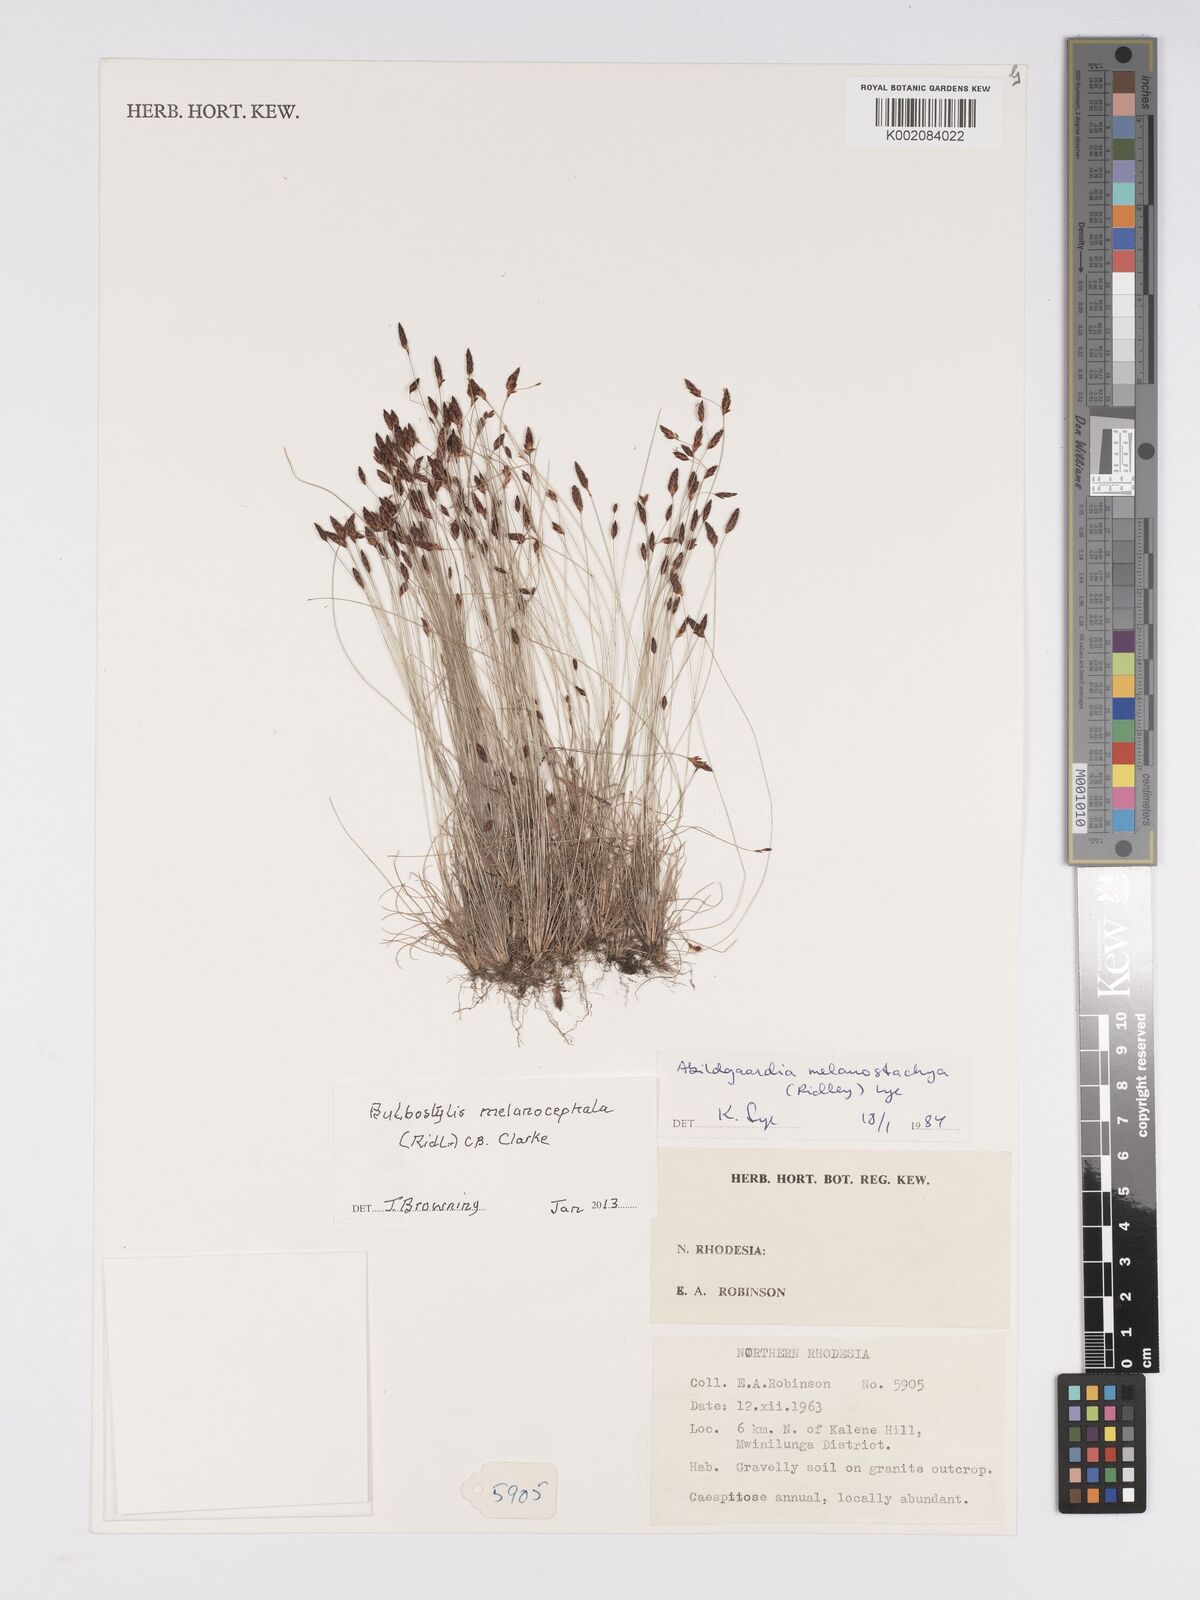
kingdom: Plantae
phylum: Tracheophyta
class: Liliopsida
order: Poales
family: Cyperaceae
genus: Bulbostylis
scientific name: Bulbostylis melanocephala
